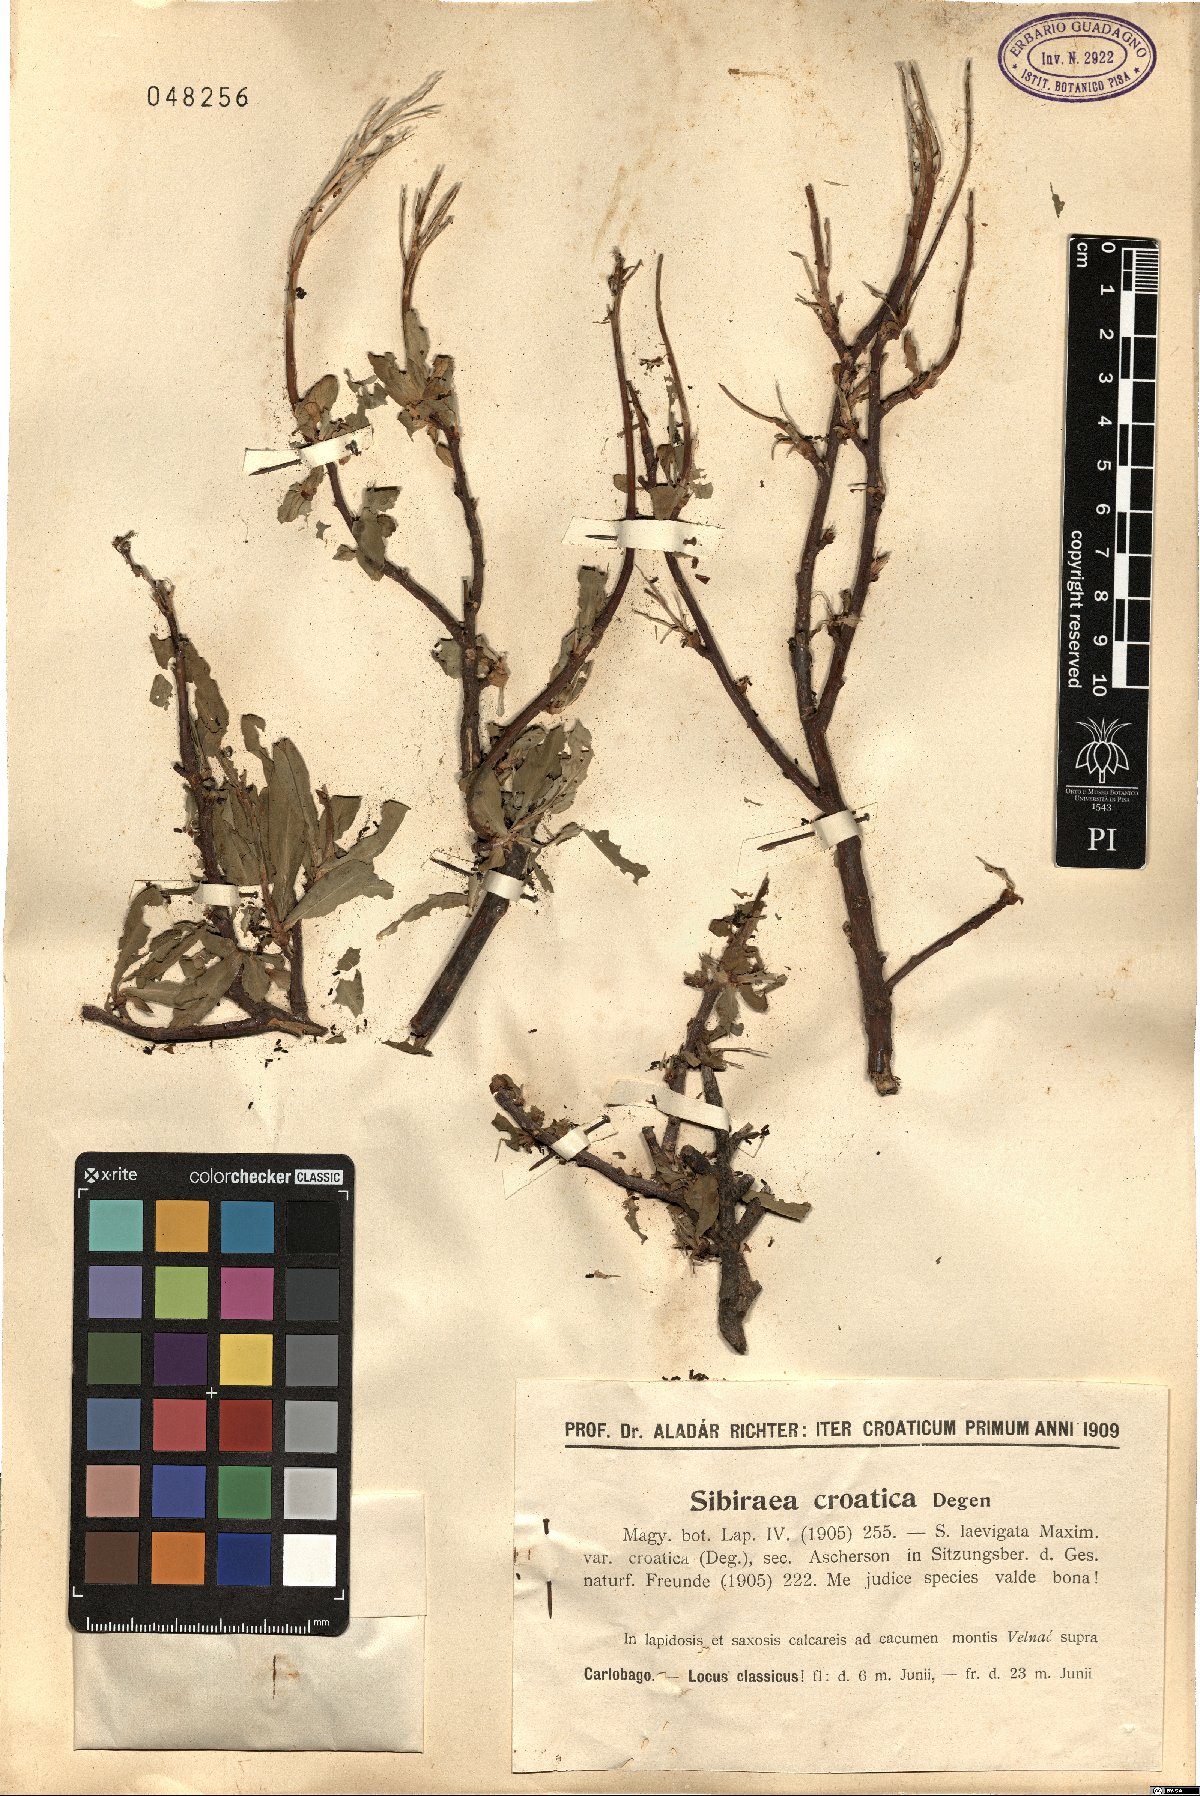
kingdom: Plantae
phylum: Tracheophyta
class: Magnoliopsida
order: Rosales
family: Rosaceae
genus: Sibiraea
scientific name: Sibiraea laevigata
